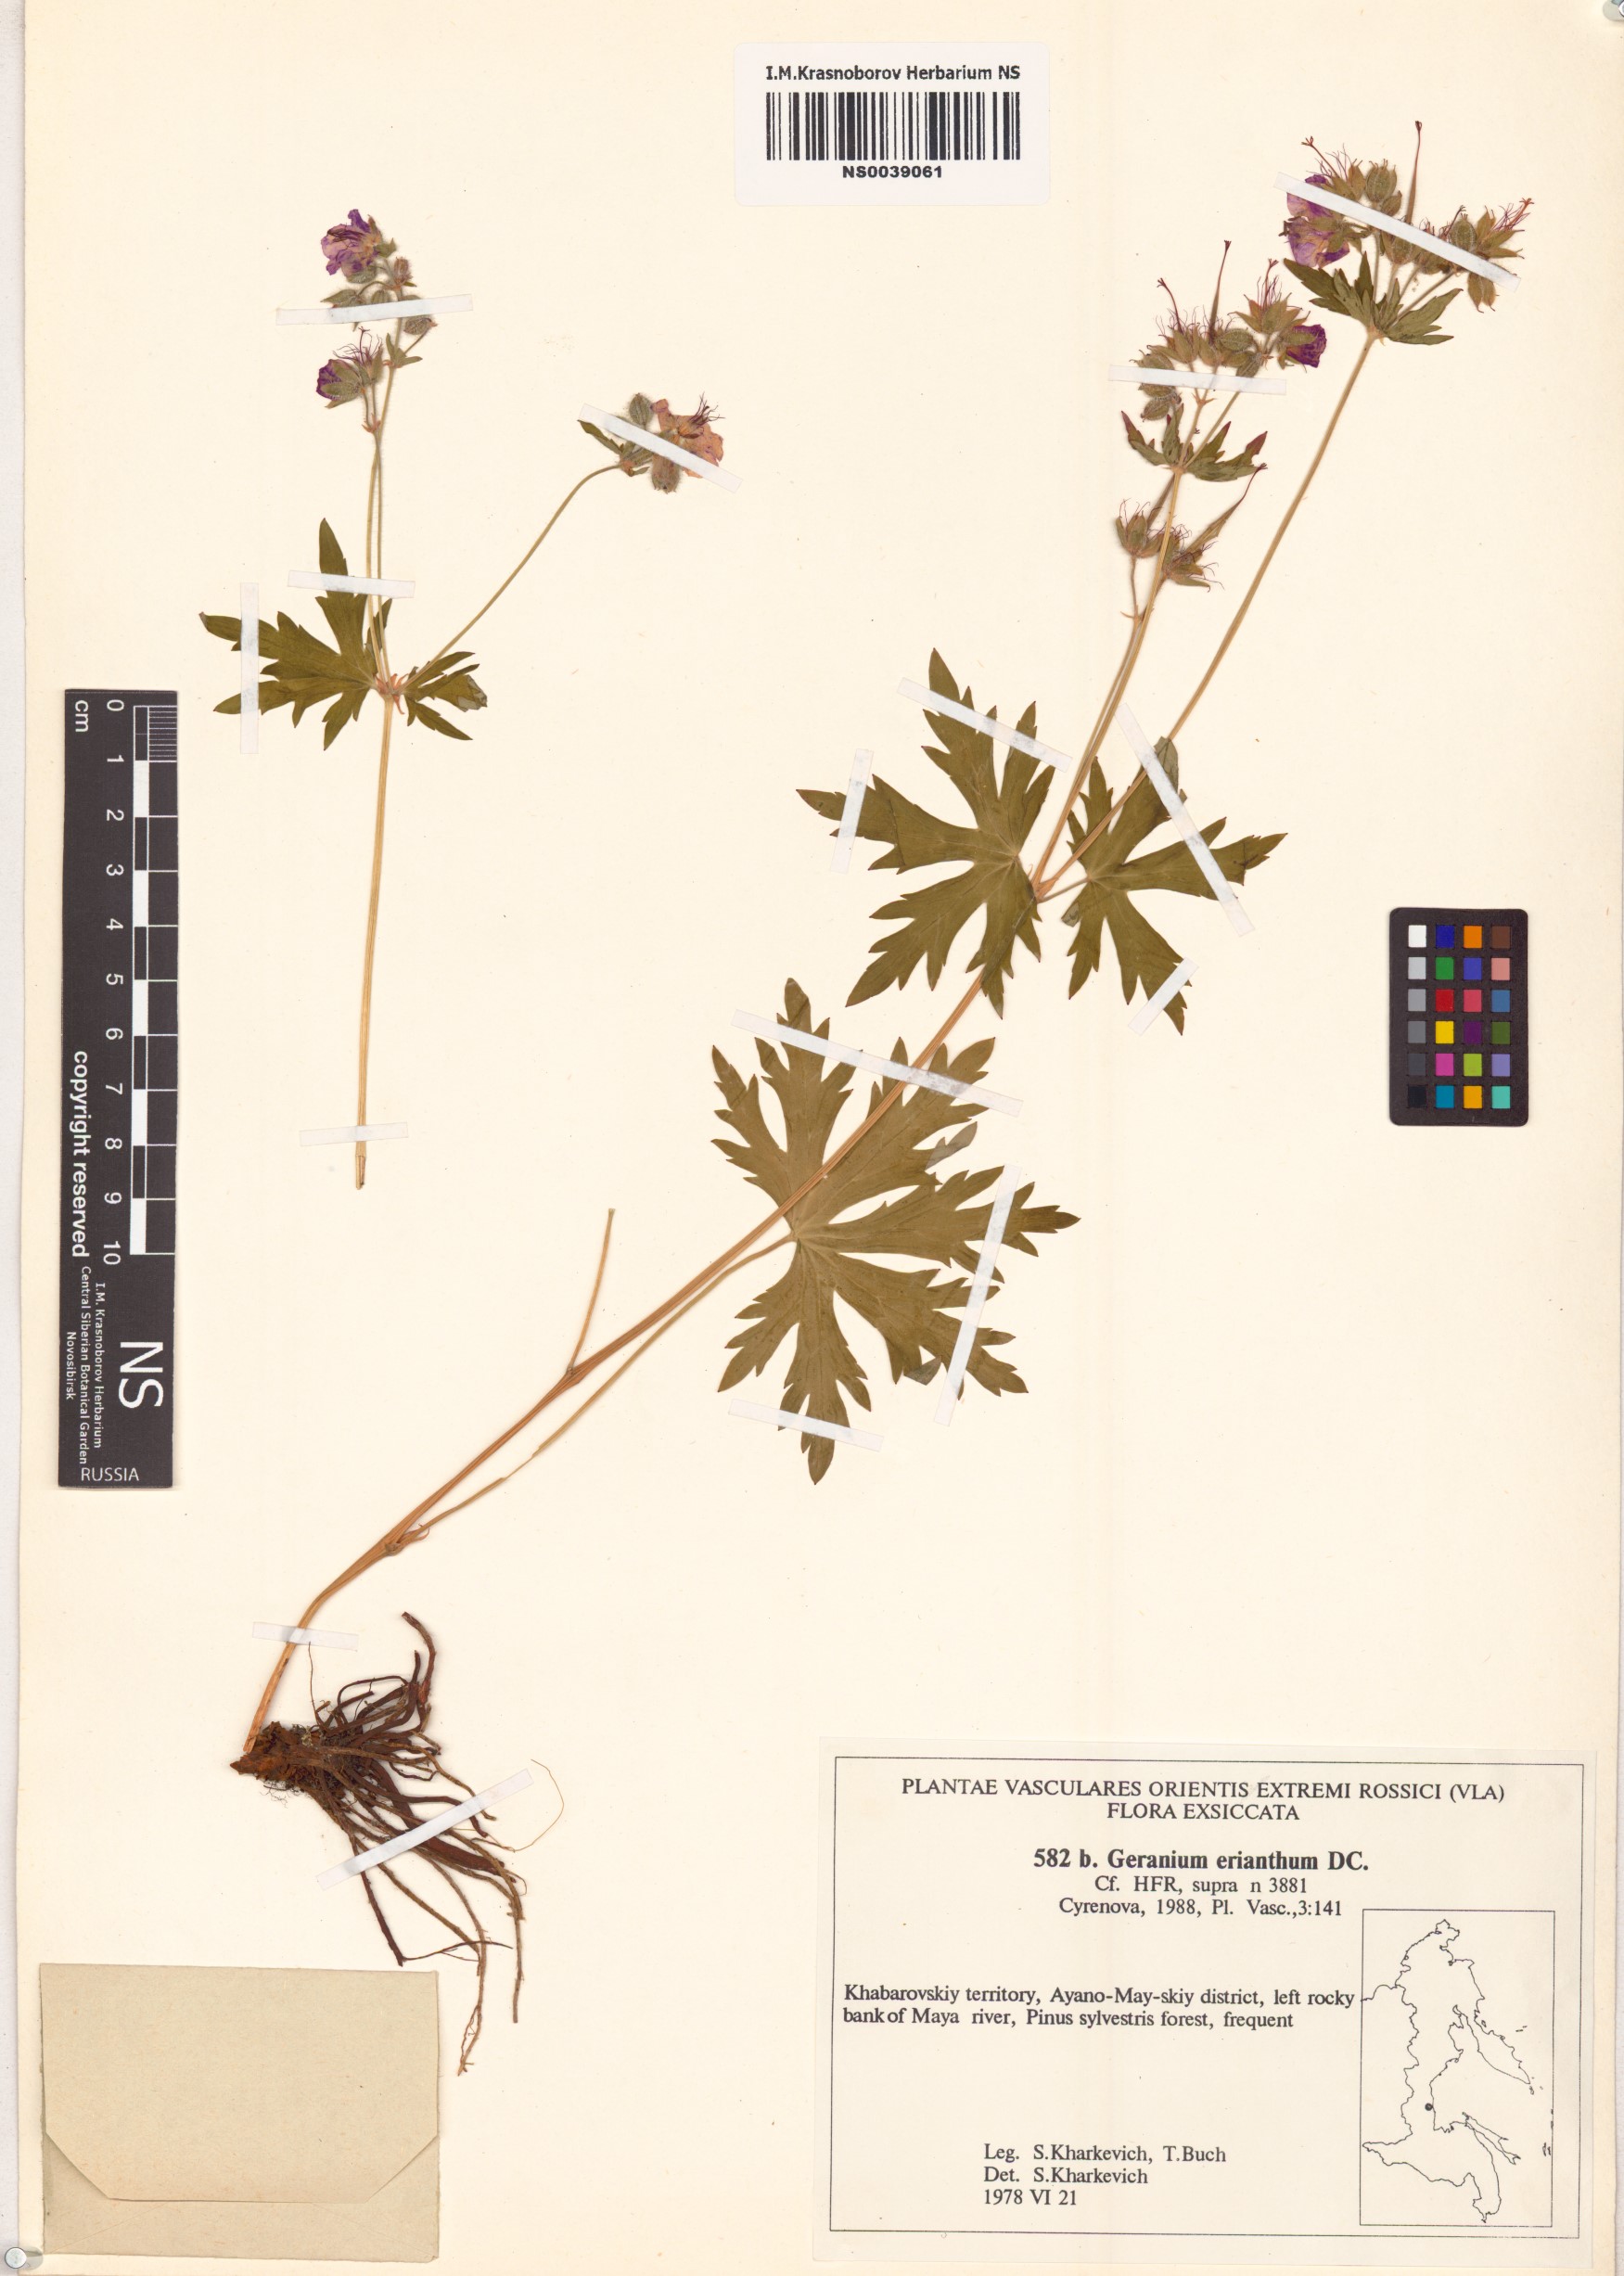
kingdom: Plantae
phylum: Tracheophyta
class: Magnoliopsida
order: Geraniales
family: Geraniaceae
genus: Geranium
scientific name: Geranium erianthum
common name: Northern crane's-bill
